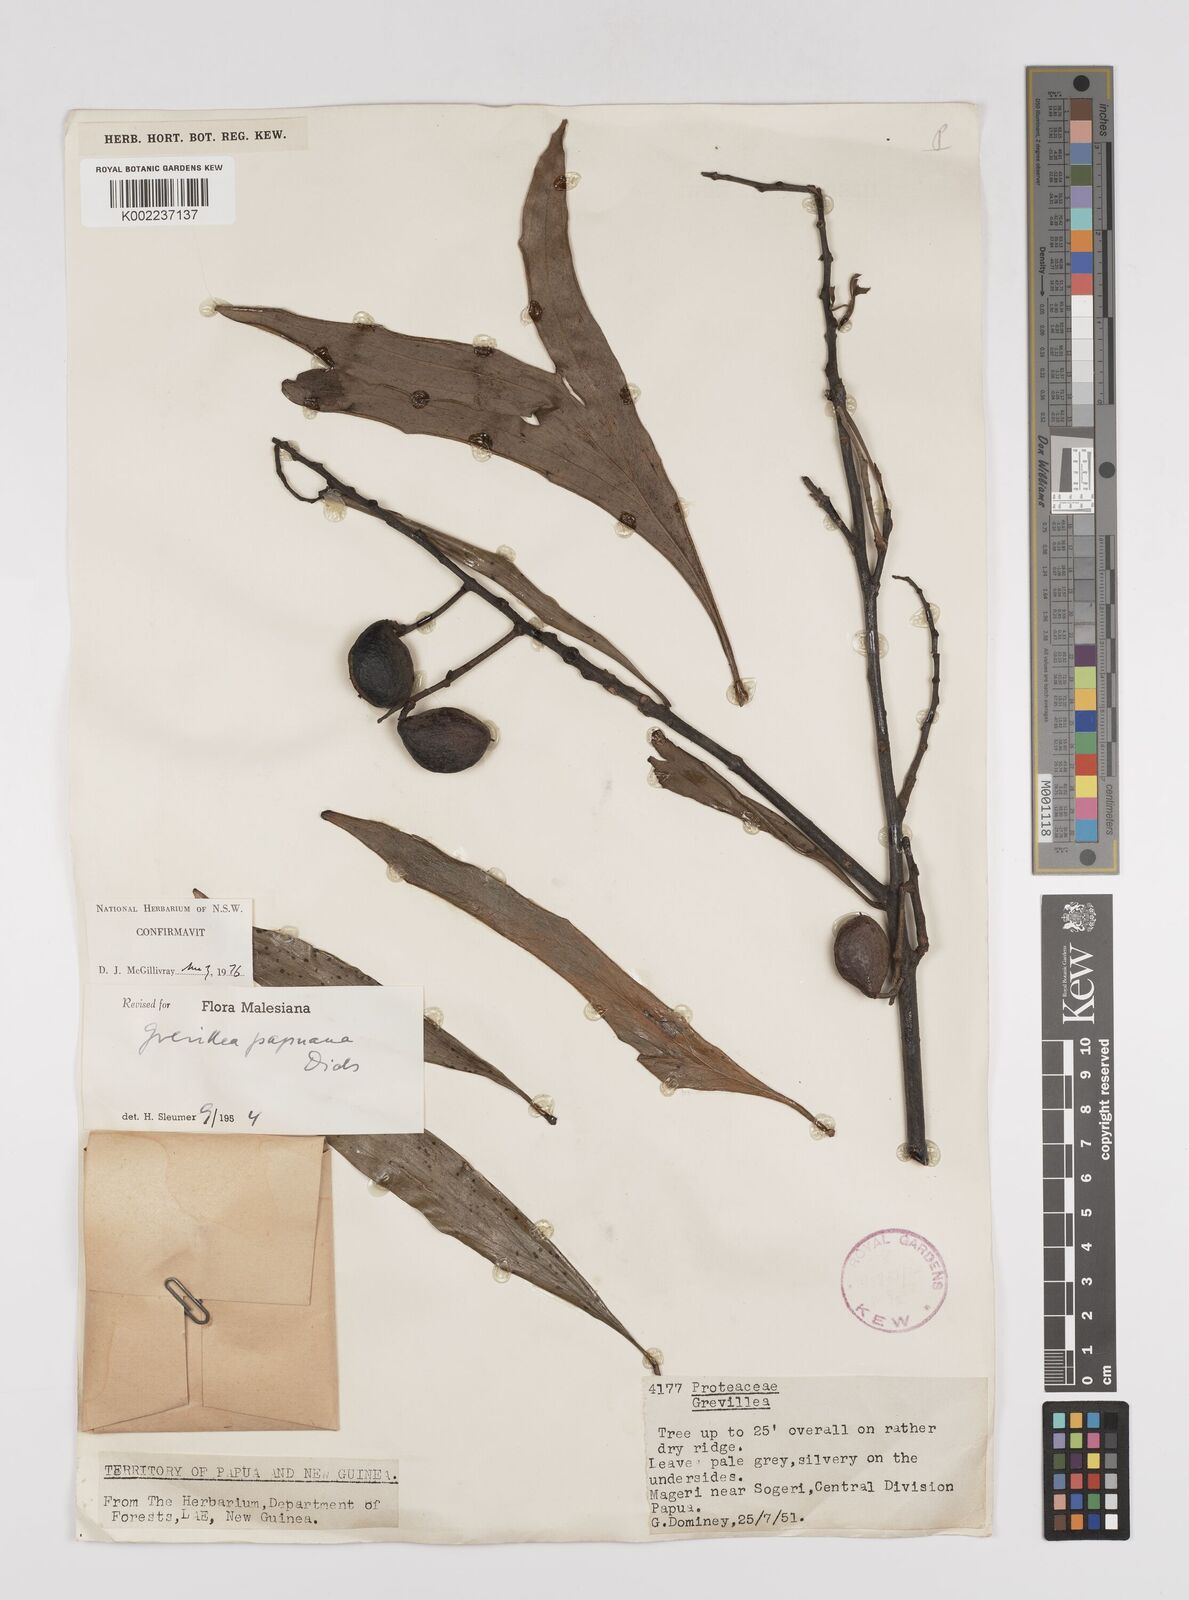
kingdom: Plantae
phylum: Tracheophyta
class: Magnoliopsida
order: Proteales
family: Proteaceae
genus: Grevillea
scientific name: Grevillea papuana
